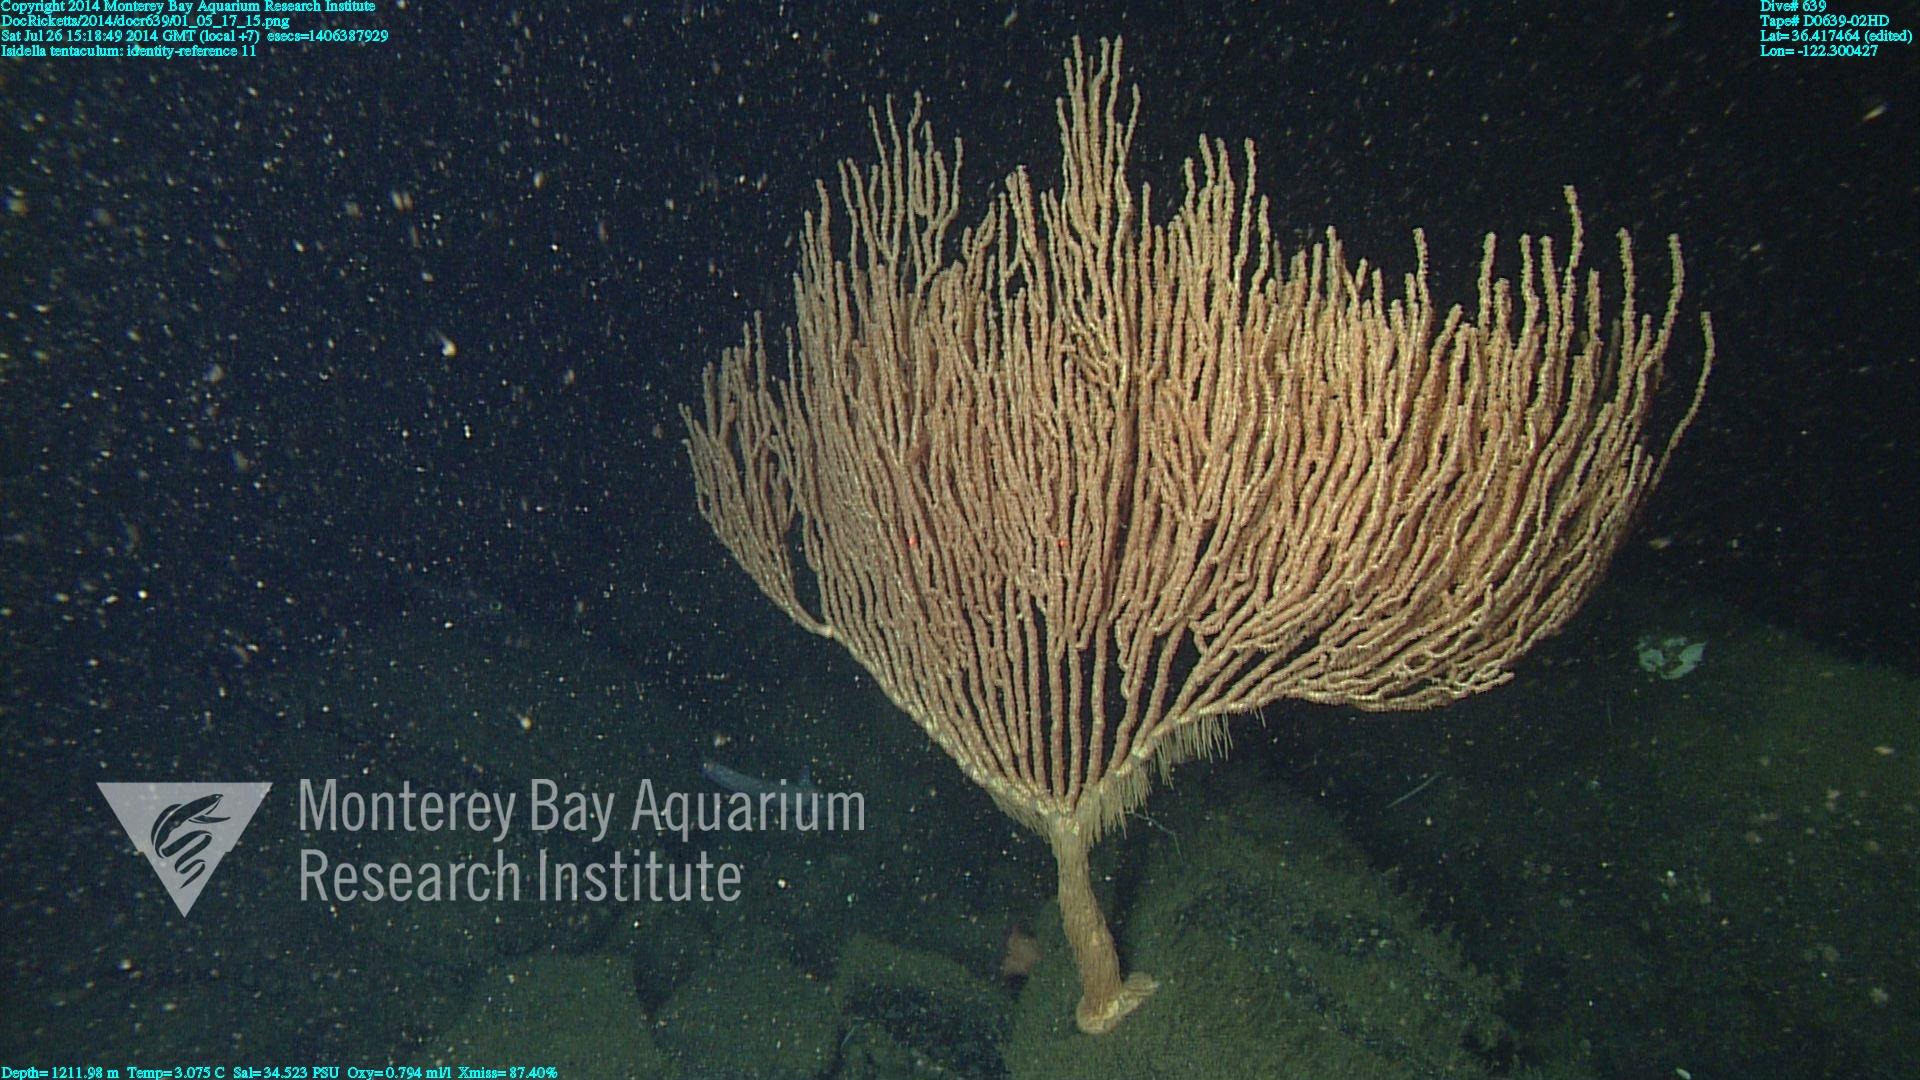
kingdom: Animalia
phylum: Cnidaria
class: Anthozoa
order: Scleralcyonacea
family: Keratoisididae
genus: Isidella
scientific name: Isidella tentaculum
